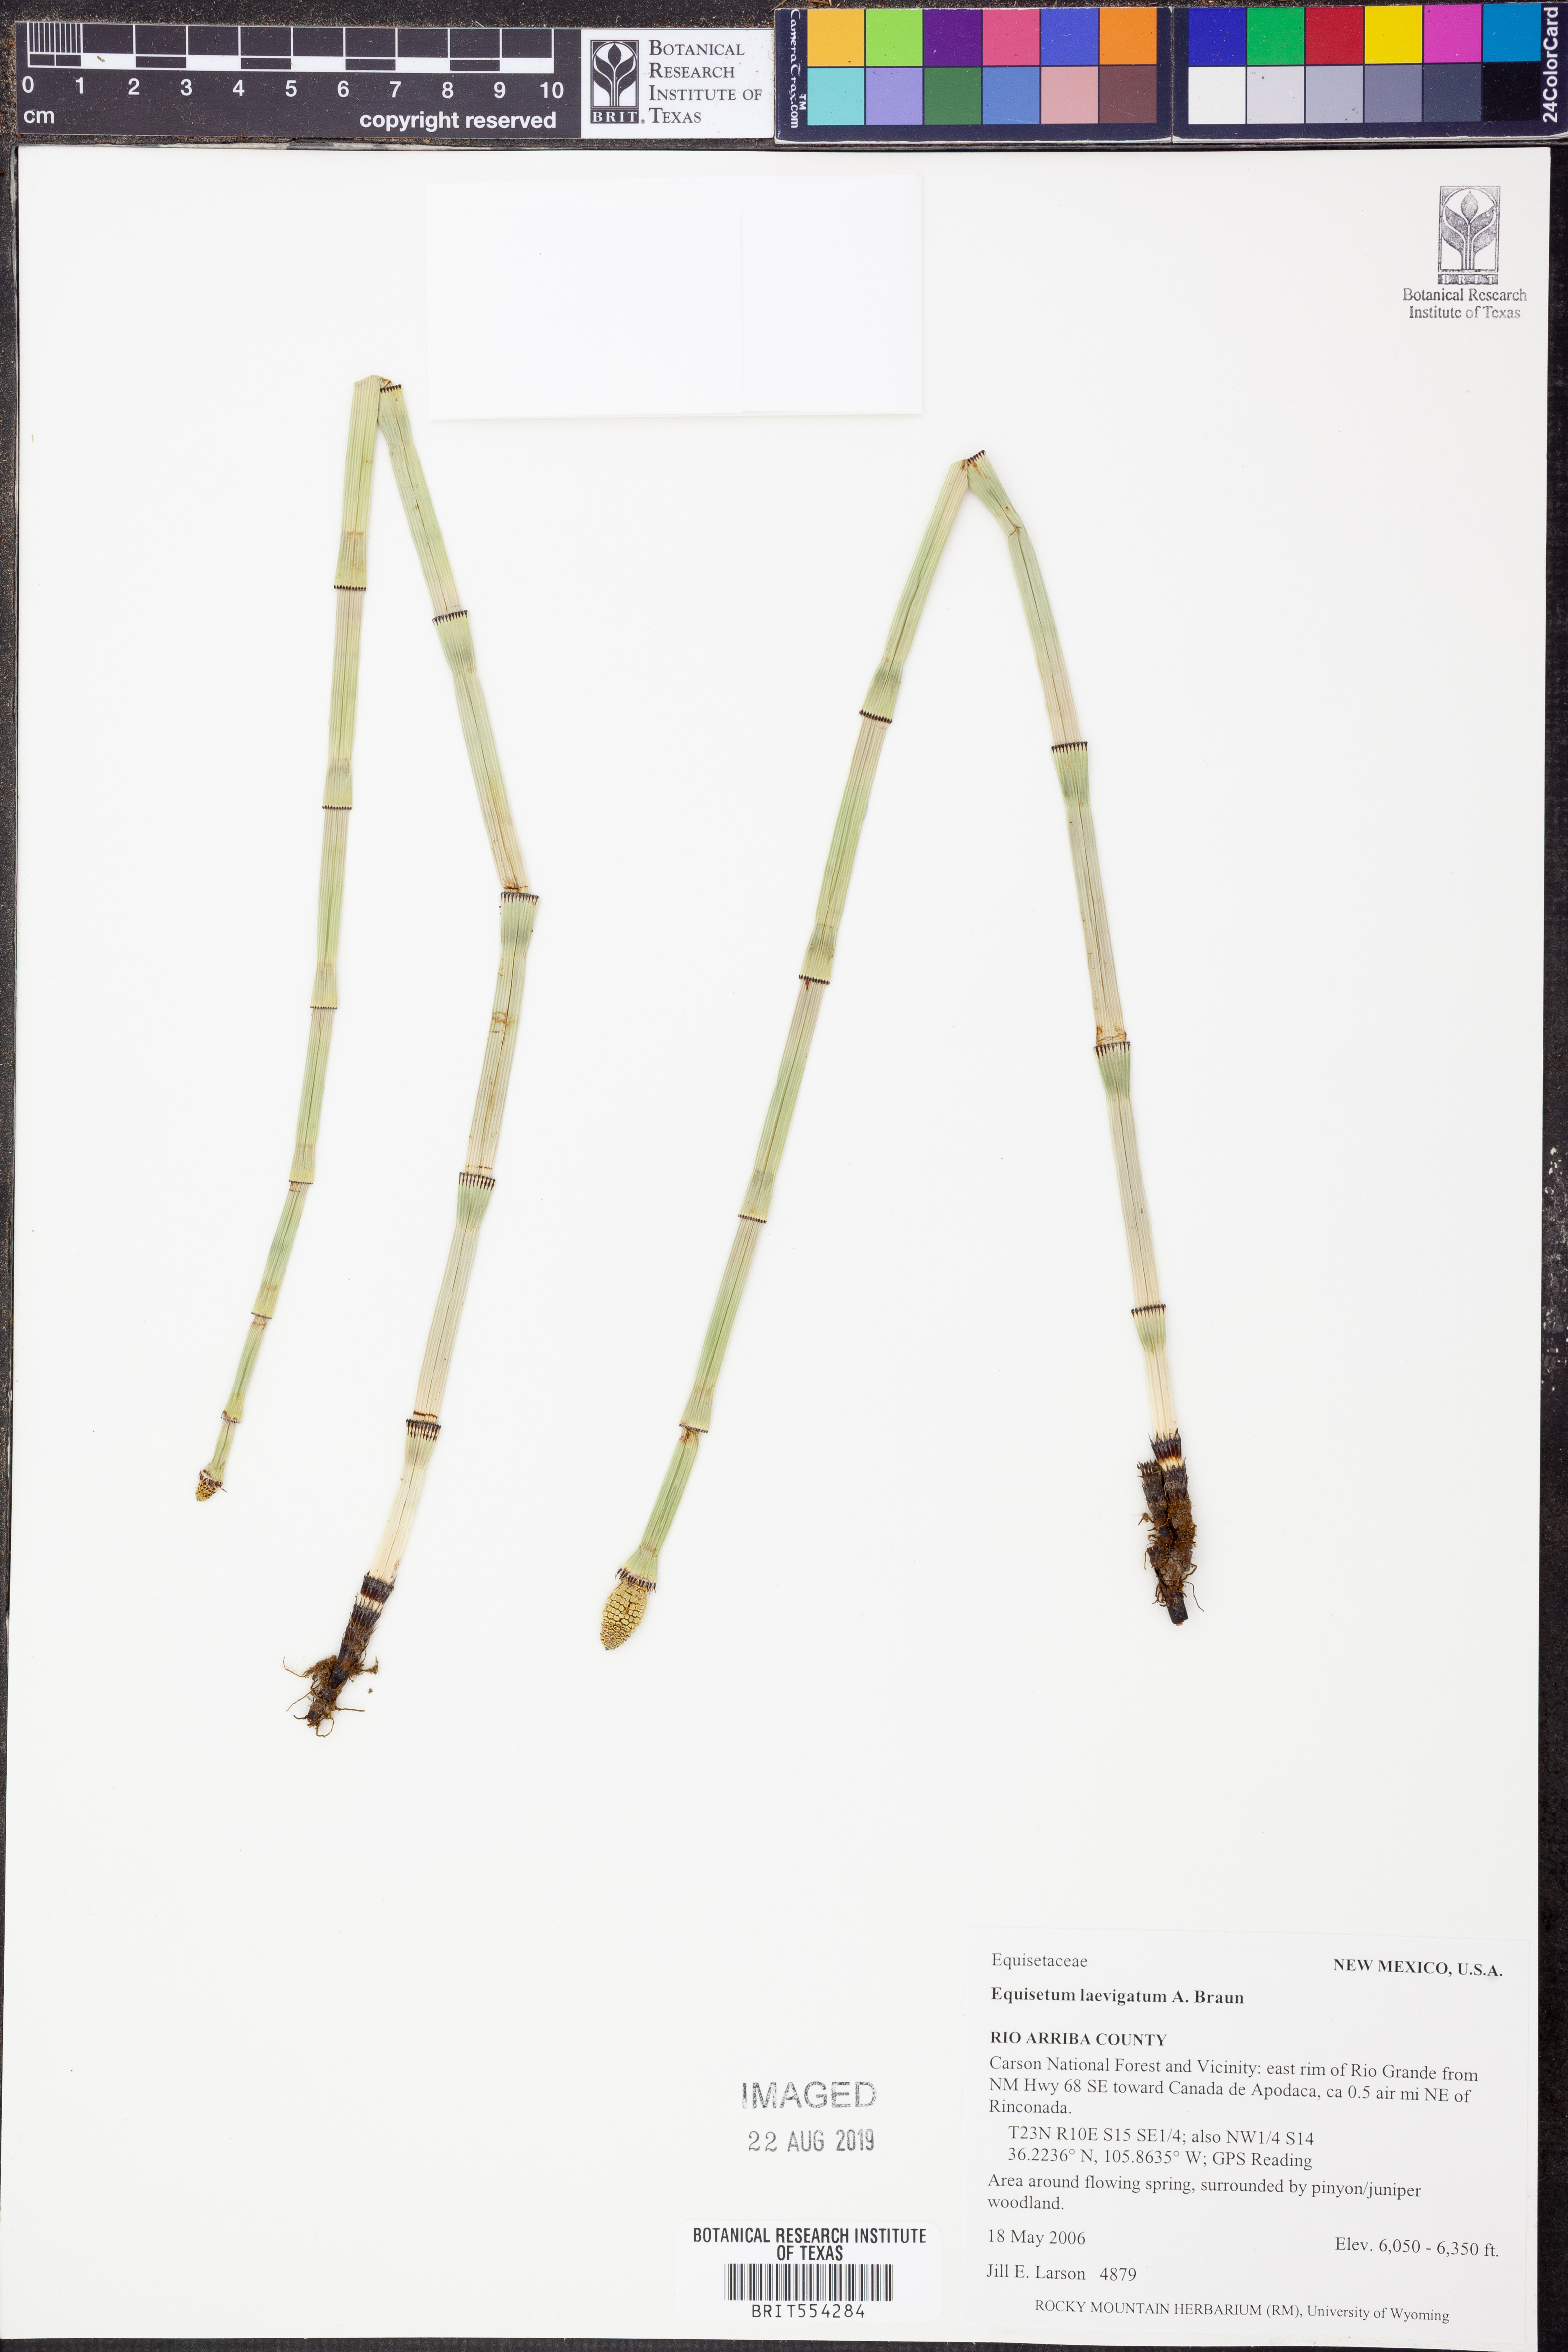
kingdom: Plantae
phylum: Tracheophyta
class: Polypodiopsida
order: Equisetales
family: Equisetaceae
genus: Equisetum
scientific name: Equisetum laevigatum
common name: Smooth scouring-rush
